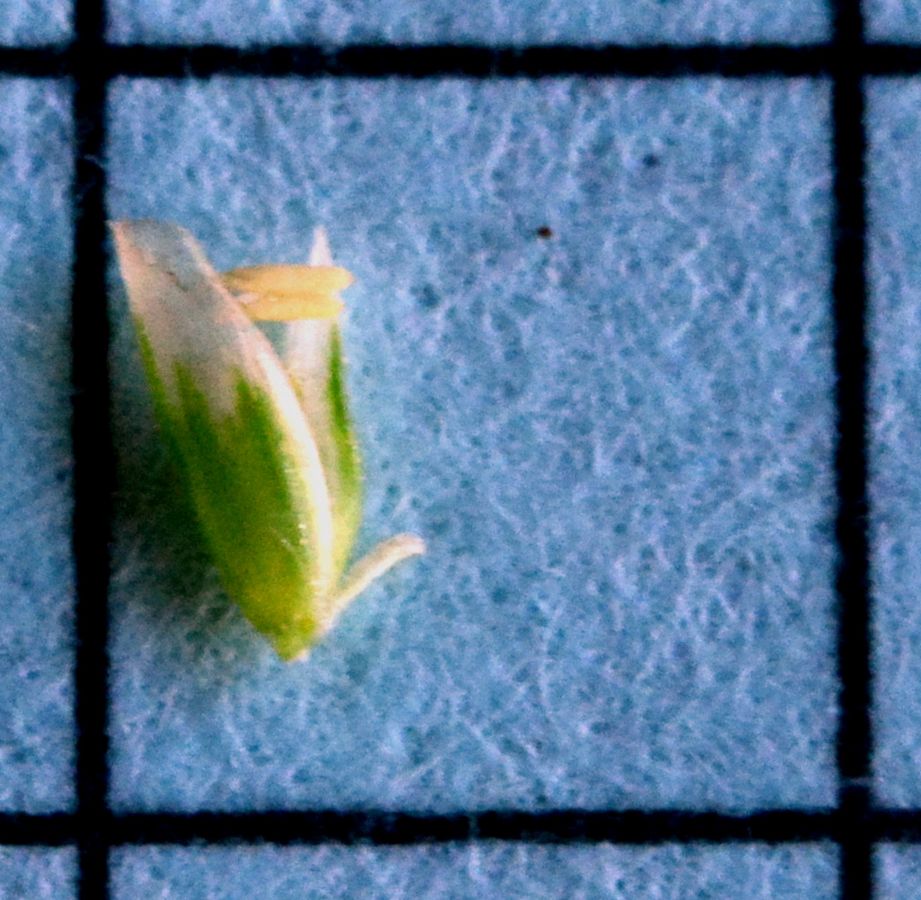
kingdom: Plantae
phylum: Tracheophyta
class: Liliopsida
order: Poales
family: Poaceae
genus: Puccinellia
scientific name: Puccinellia distans
